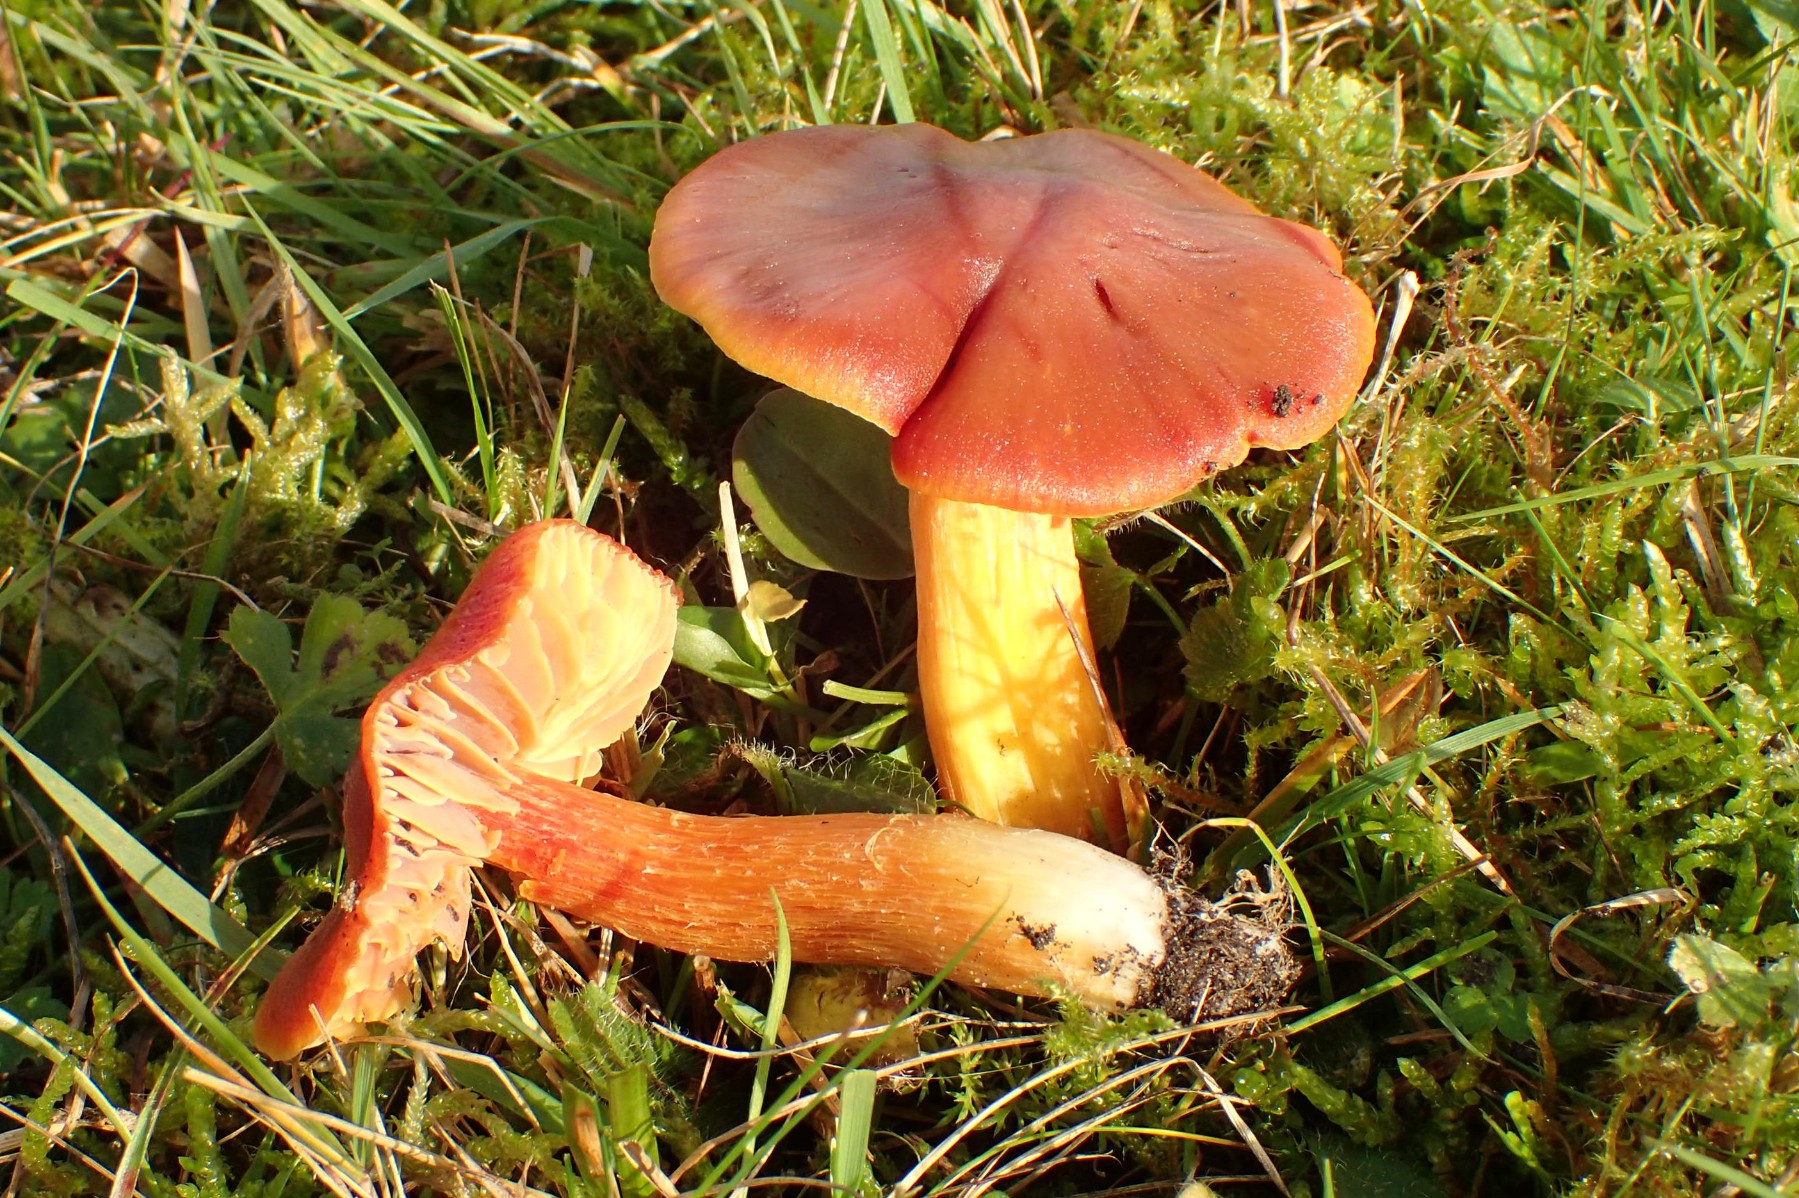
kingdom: Fungi
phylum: Basidiomycota
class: Agaricomycetes
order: Agaricales
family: Hygrophoraceae
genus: Hygrocybe
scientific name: Hygrocybe punicea
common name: skarlagen-vokshat
